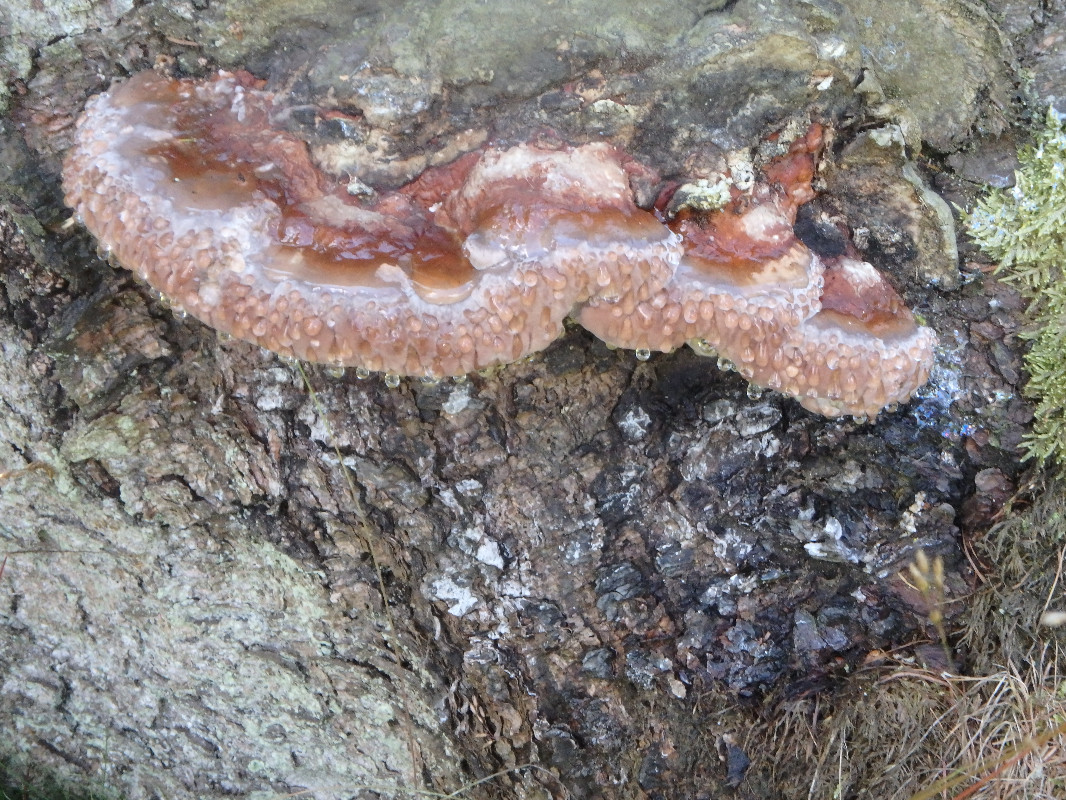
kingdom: Fungi
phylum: Basidiomycota
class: Agaricomycetes
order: Polyporales
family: Fomitopsidaceae
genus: Fomitopsis
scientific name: Fomitopsis pinicola
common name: randbæltet hovporesvamp
